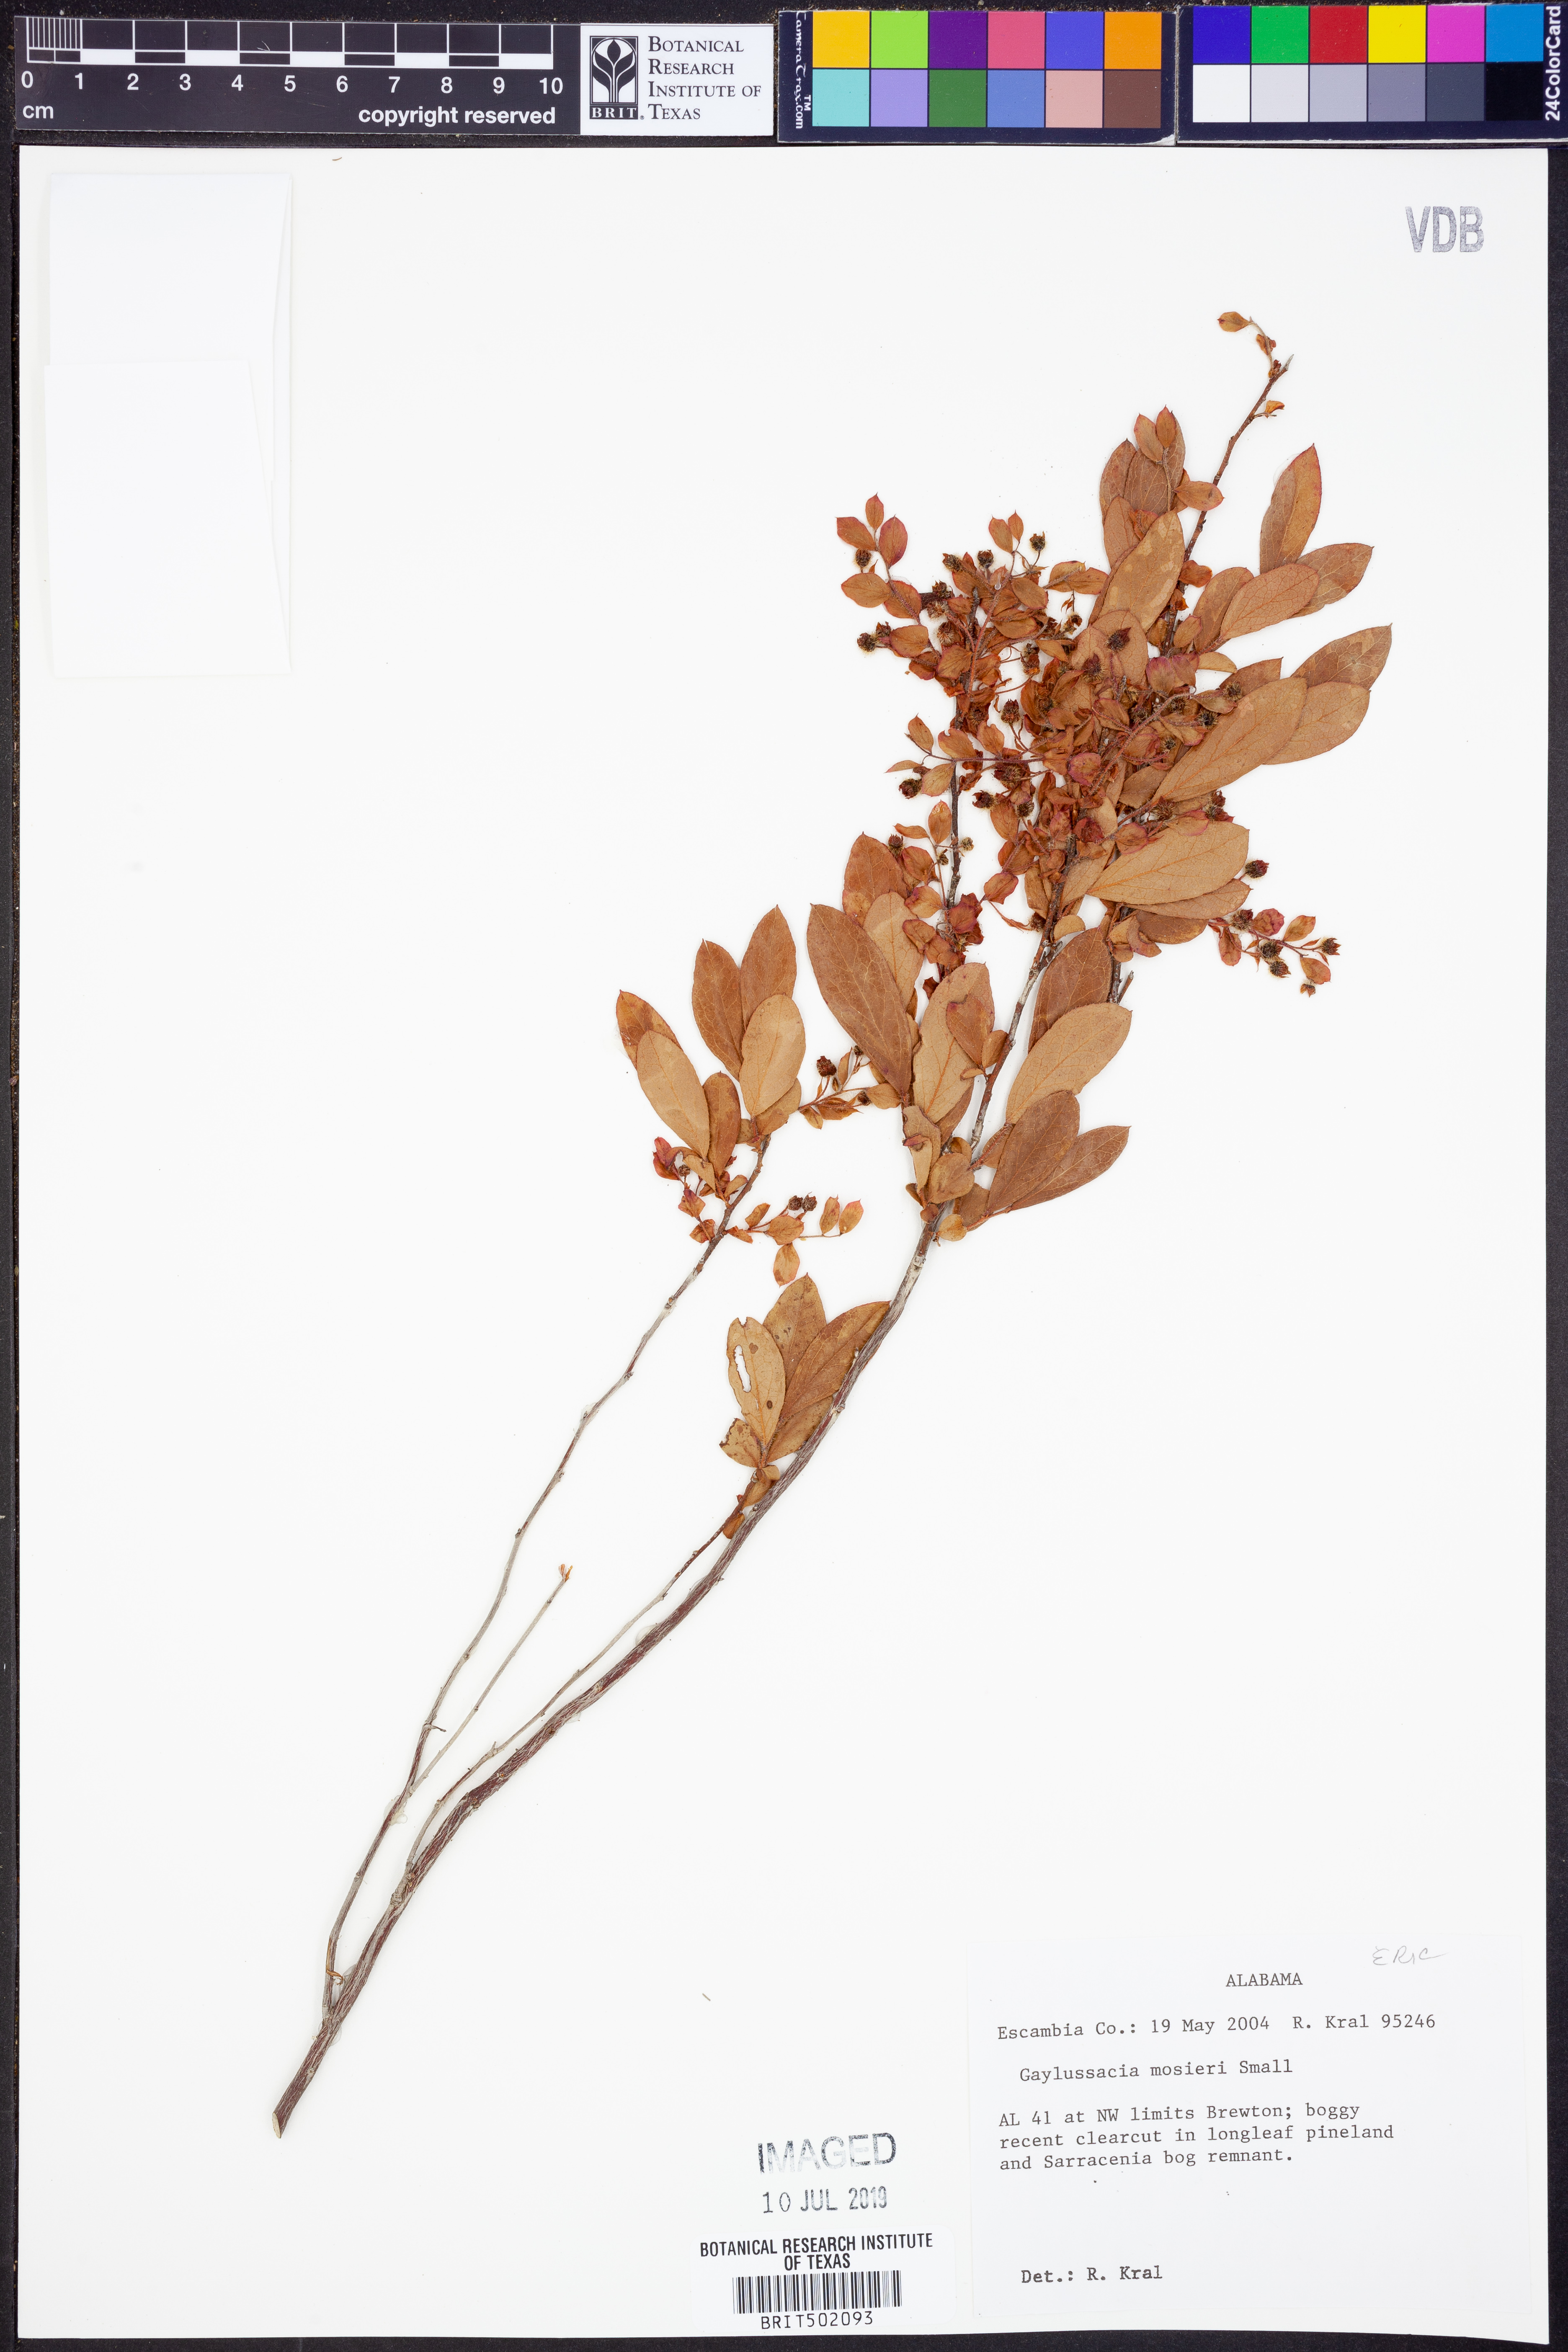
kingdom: Plantae
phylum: Tracheophyta
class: Magnoliopsida
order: Ericales
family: Ericaceae
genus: Gaylussacia
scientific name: Gaylussacia mosieri
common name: Hirsute huckleberry
